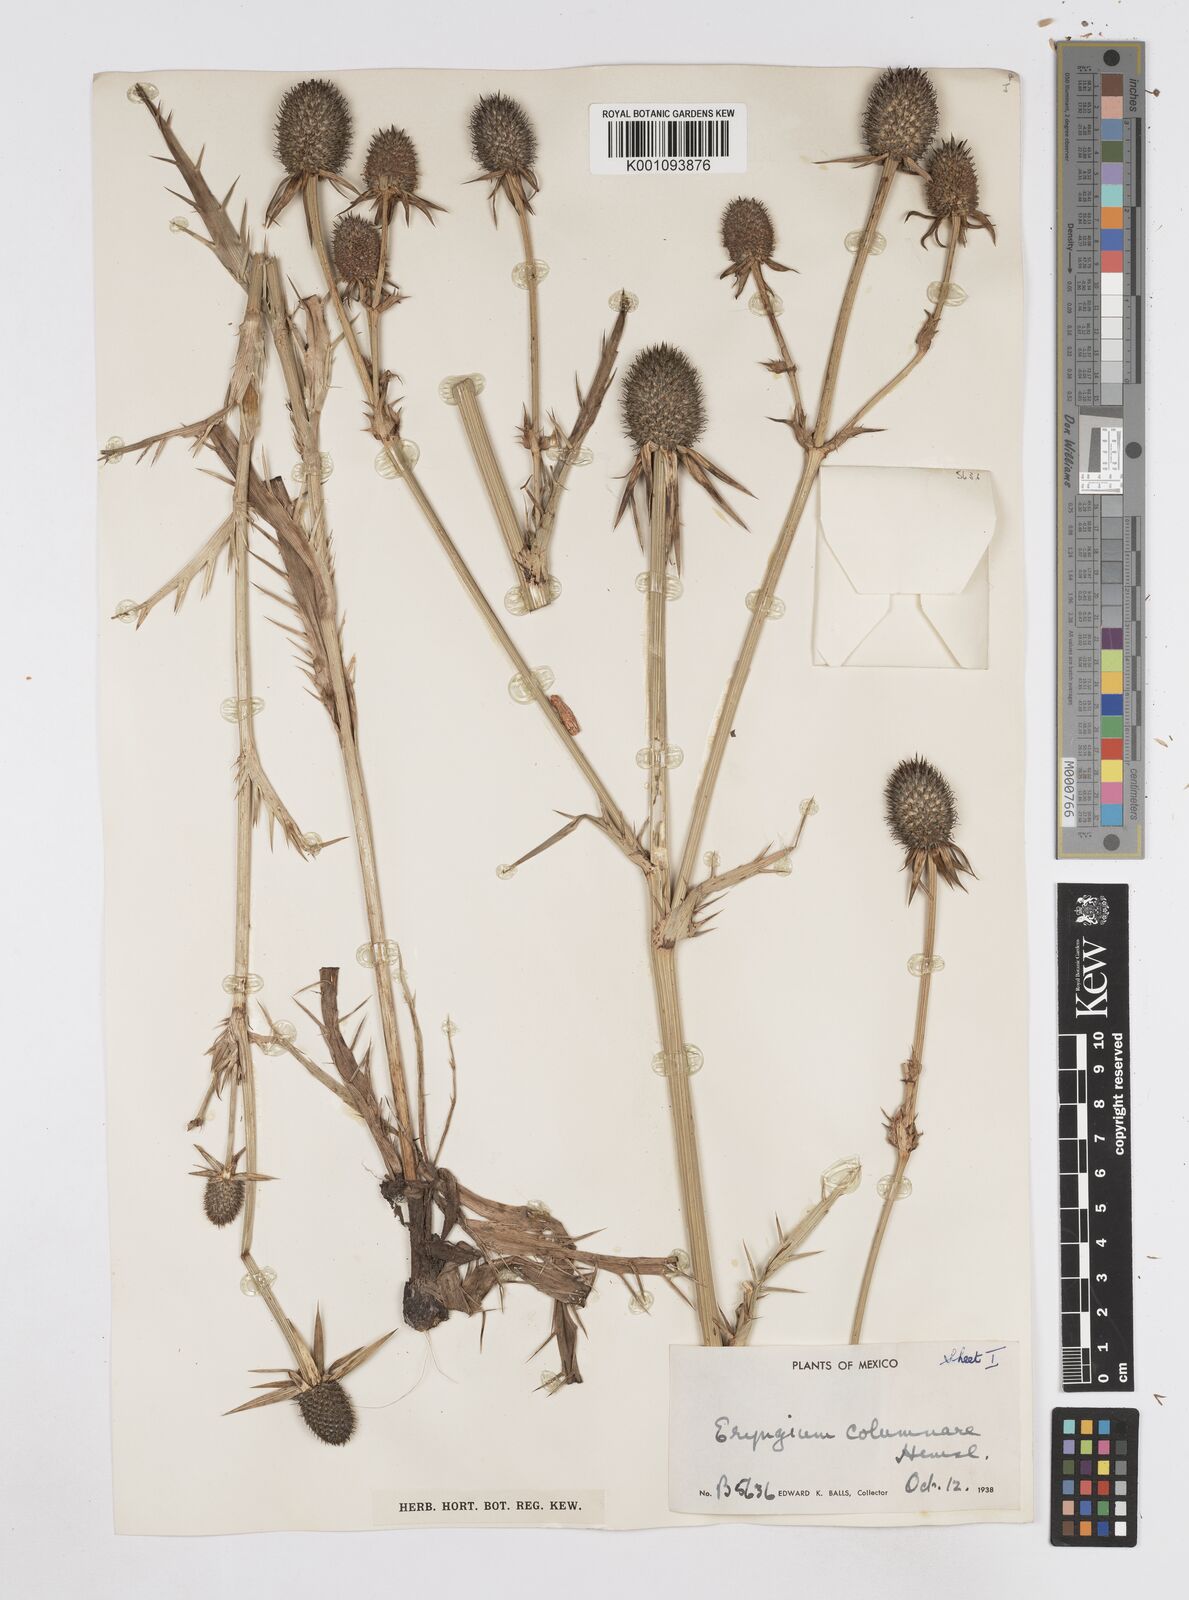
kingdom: Plantae
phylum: Tracheophyta
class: Magnoliopsida
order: Apiales
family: Apiaceae
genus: Eryngium
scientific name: Eryngium columnare
